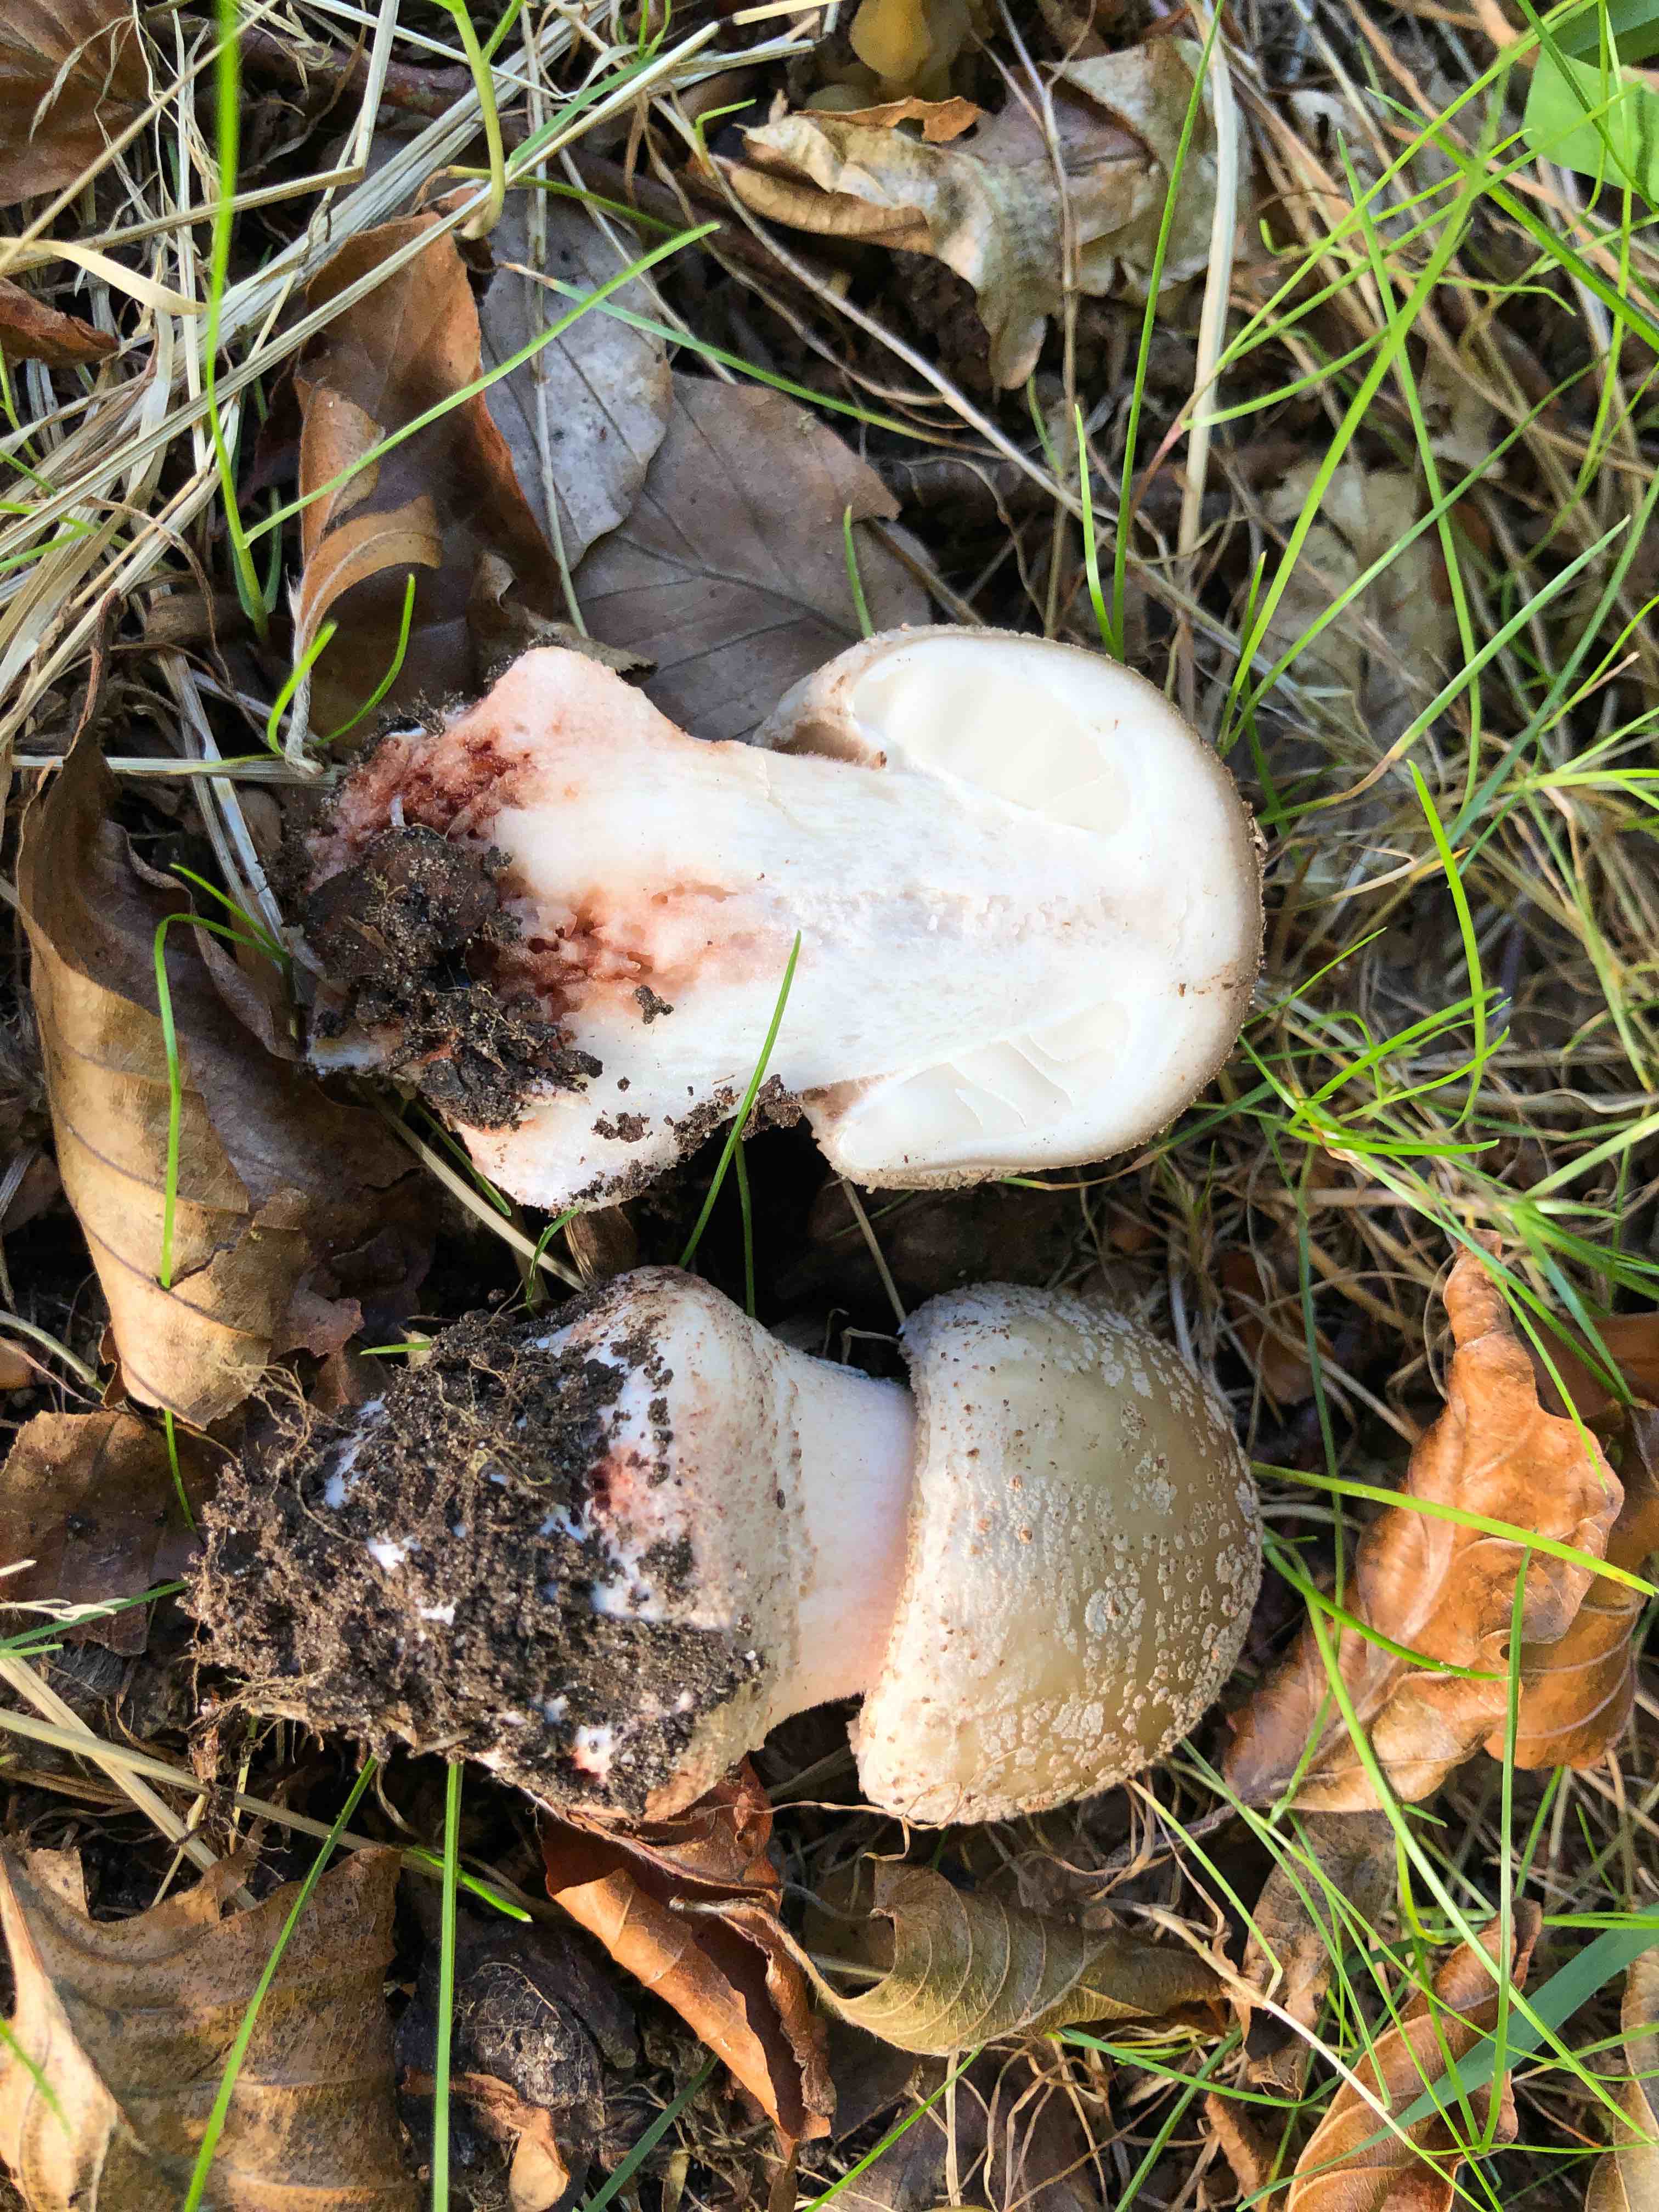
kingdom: Fungi
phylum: Basidiomycota
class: Agaricomycetes
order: Agaricales
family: Amanitaceae
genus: Amanita
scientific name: Amanita rubescens
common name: rødmende fluesvamp
